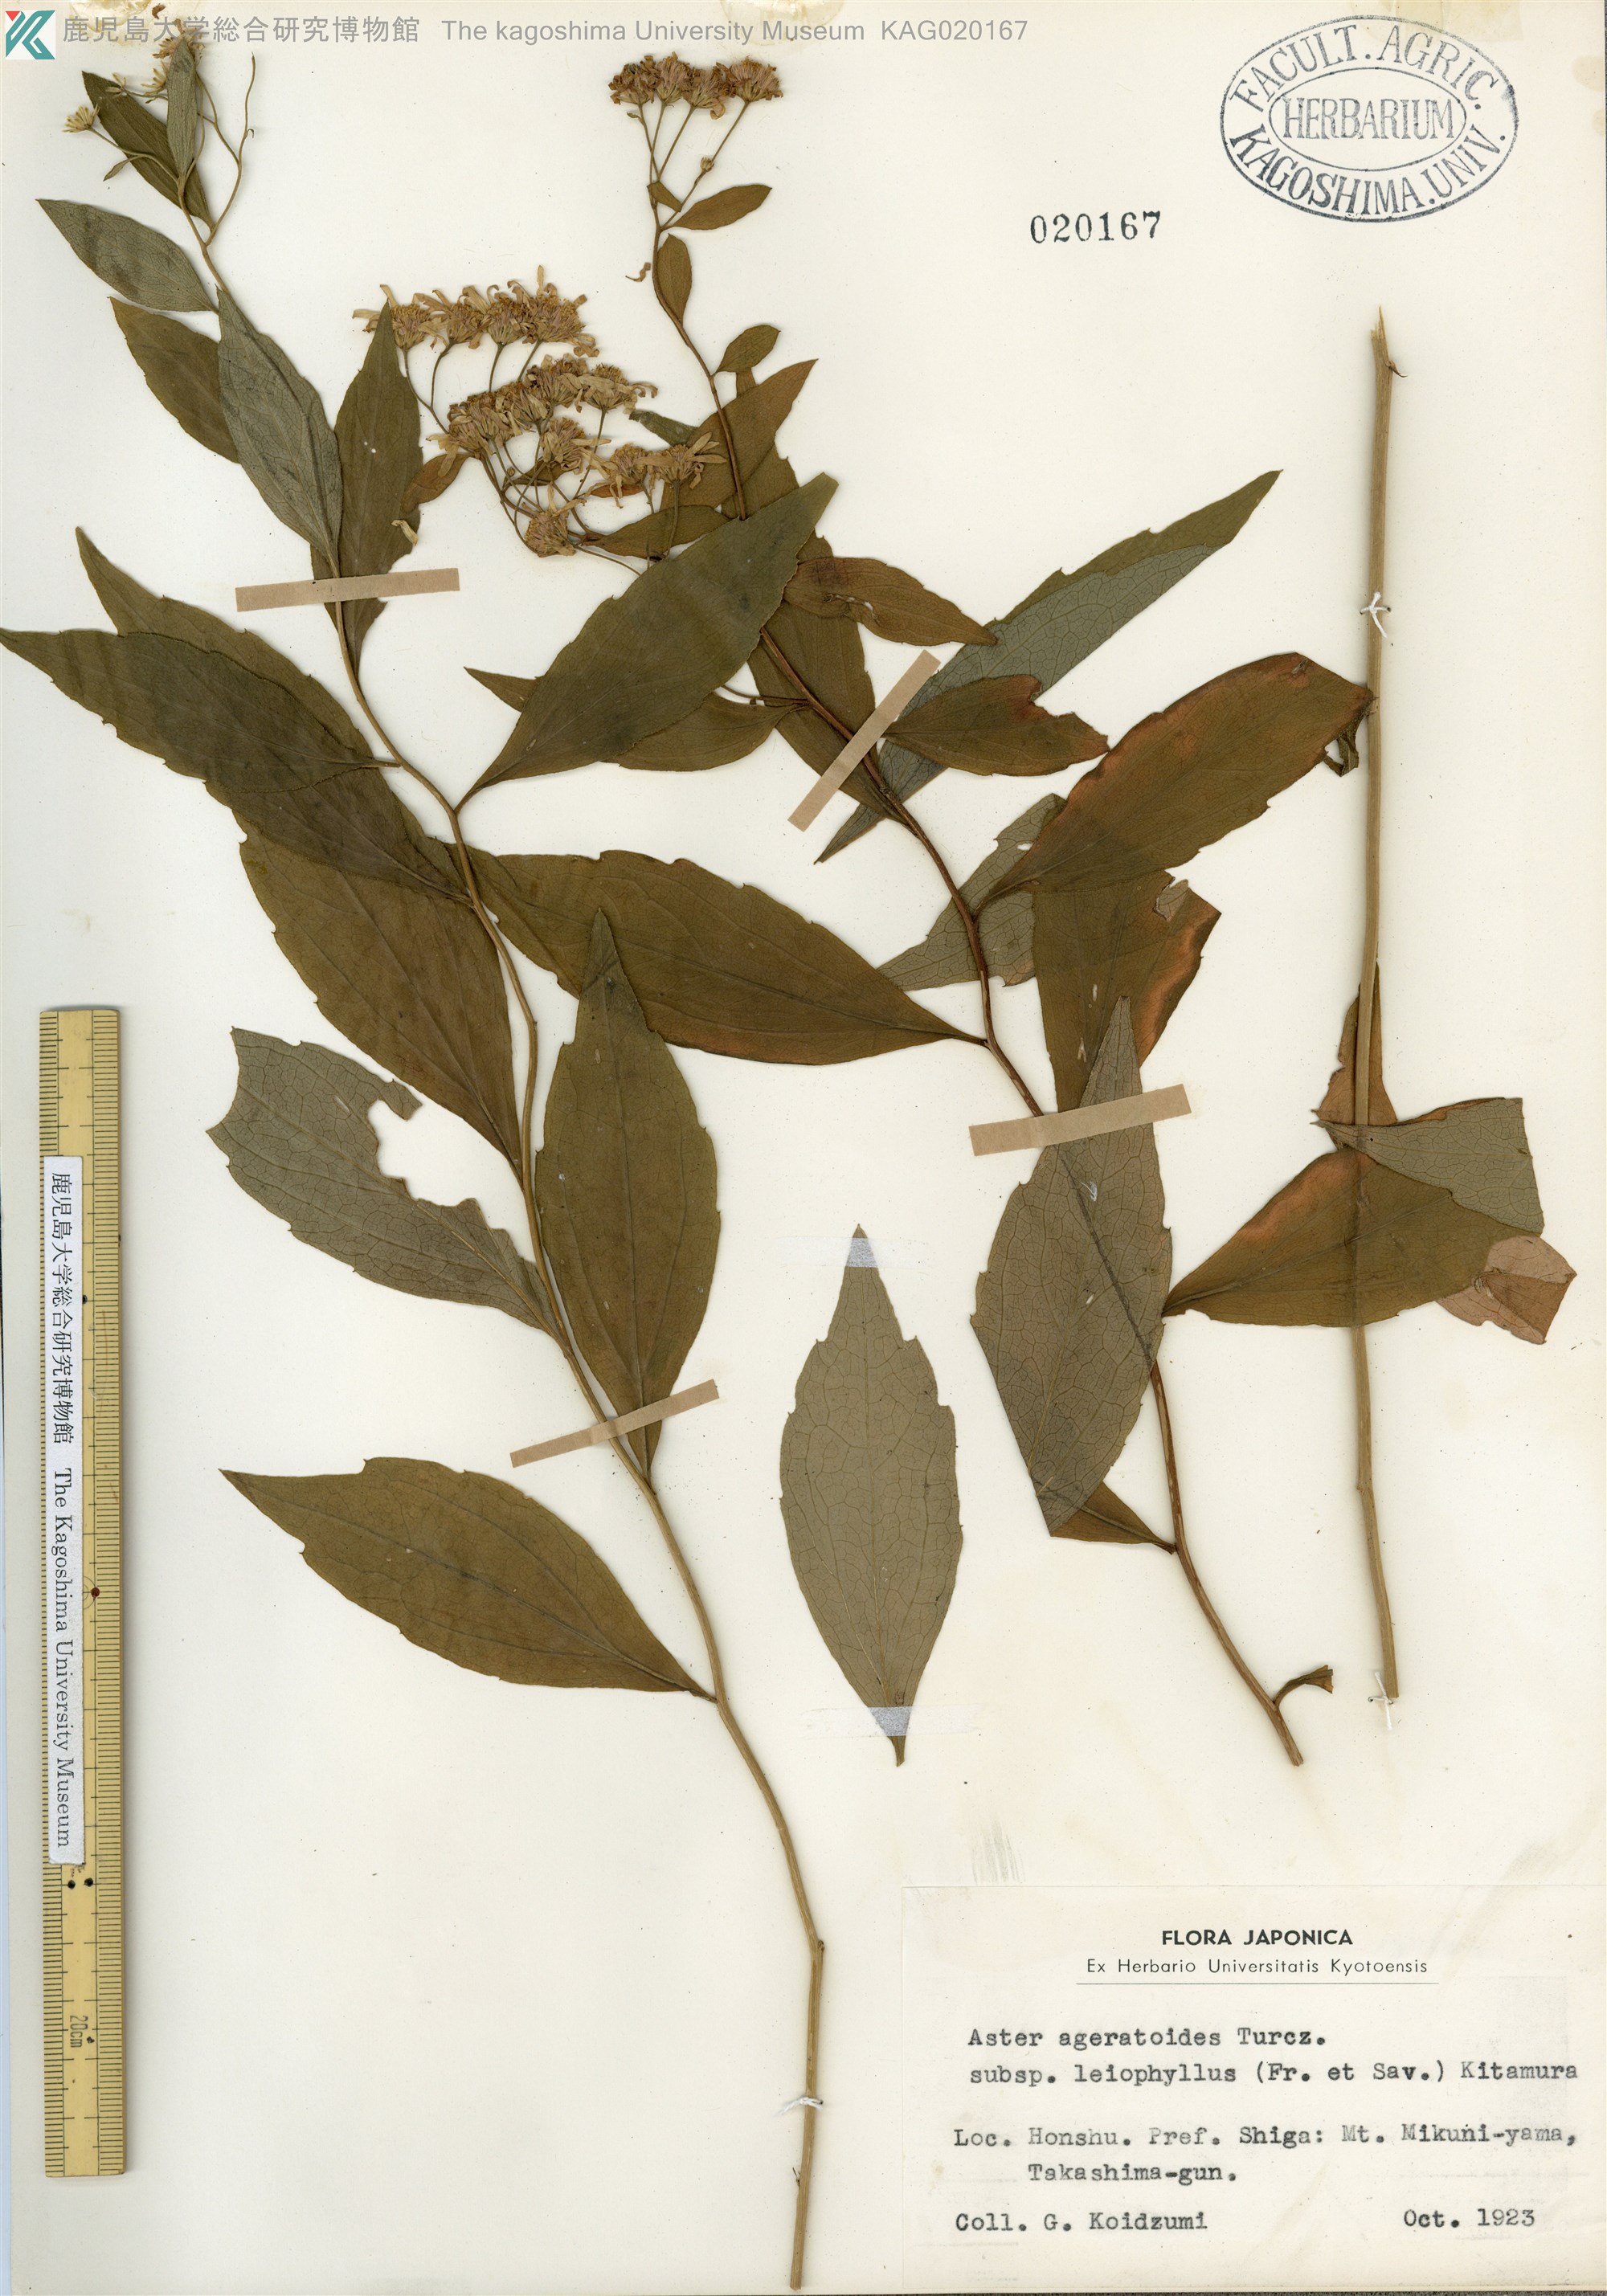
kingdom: Plantae
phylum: Tracheophyta
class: Magnoliopsida
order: Asterales
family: Asteraceae
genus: Aster
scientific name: Aster ageratoides
